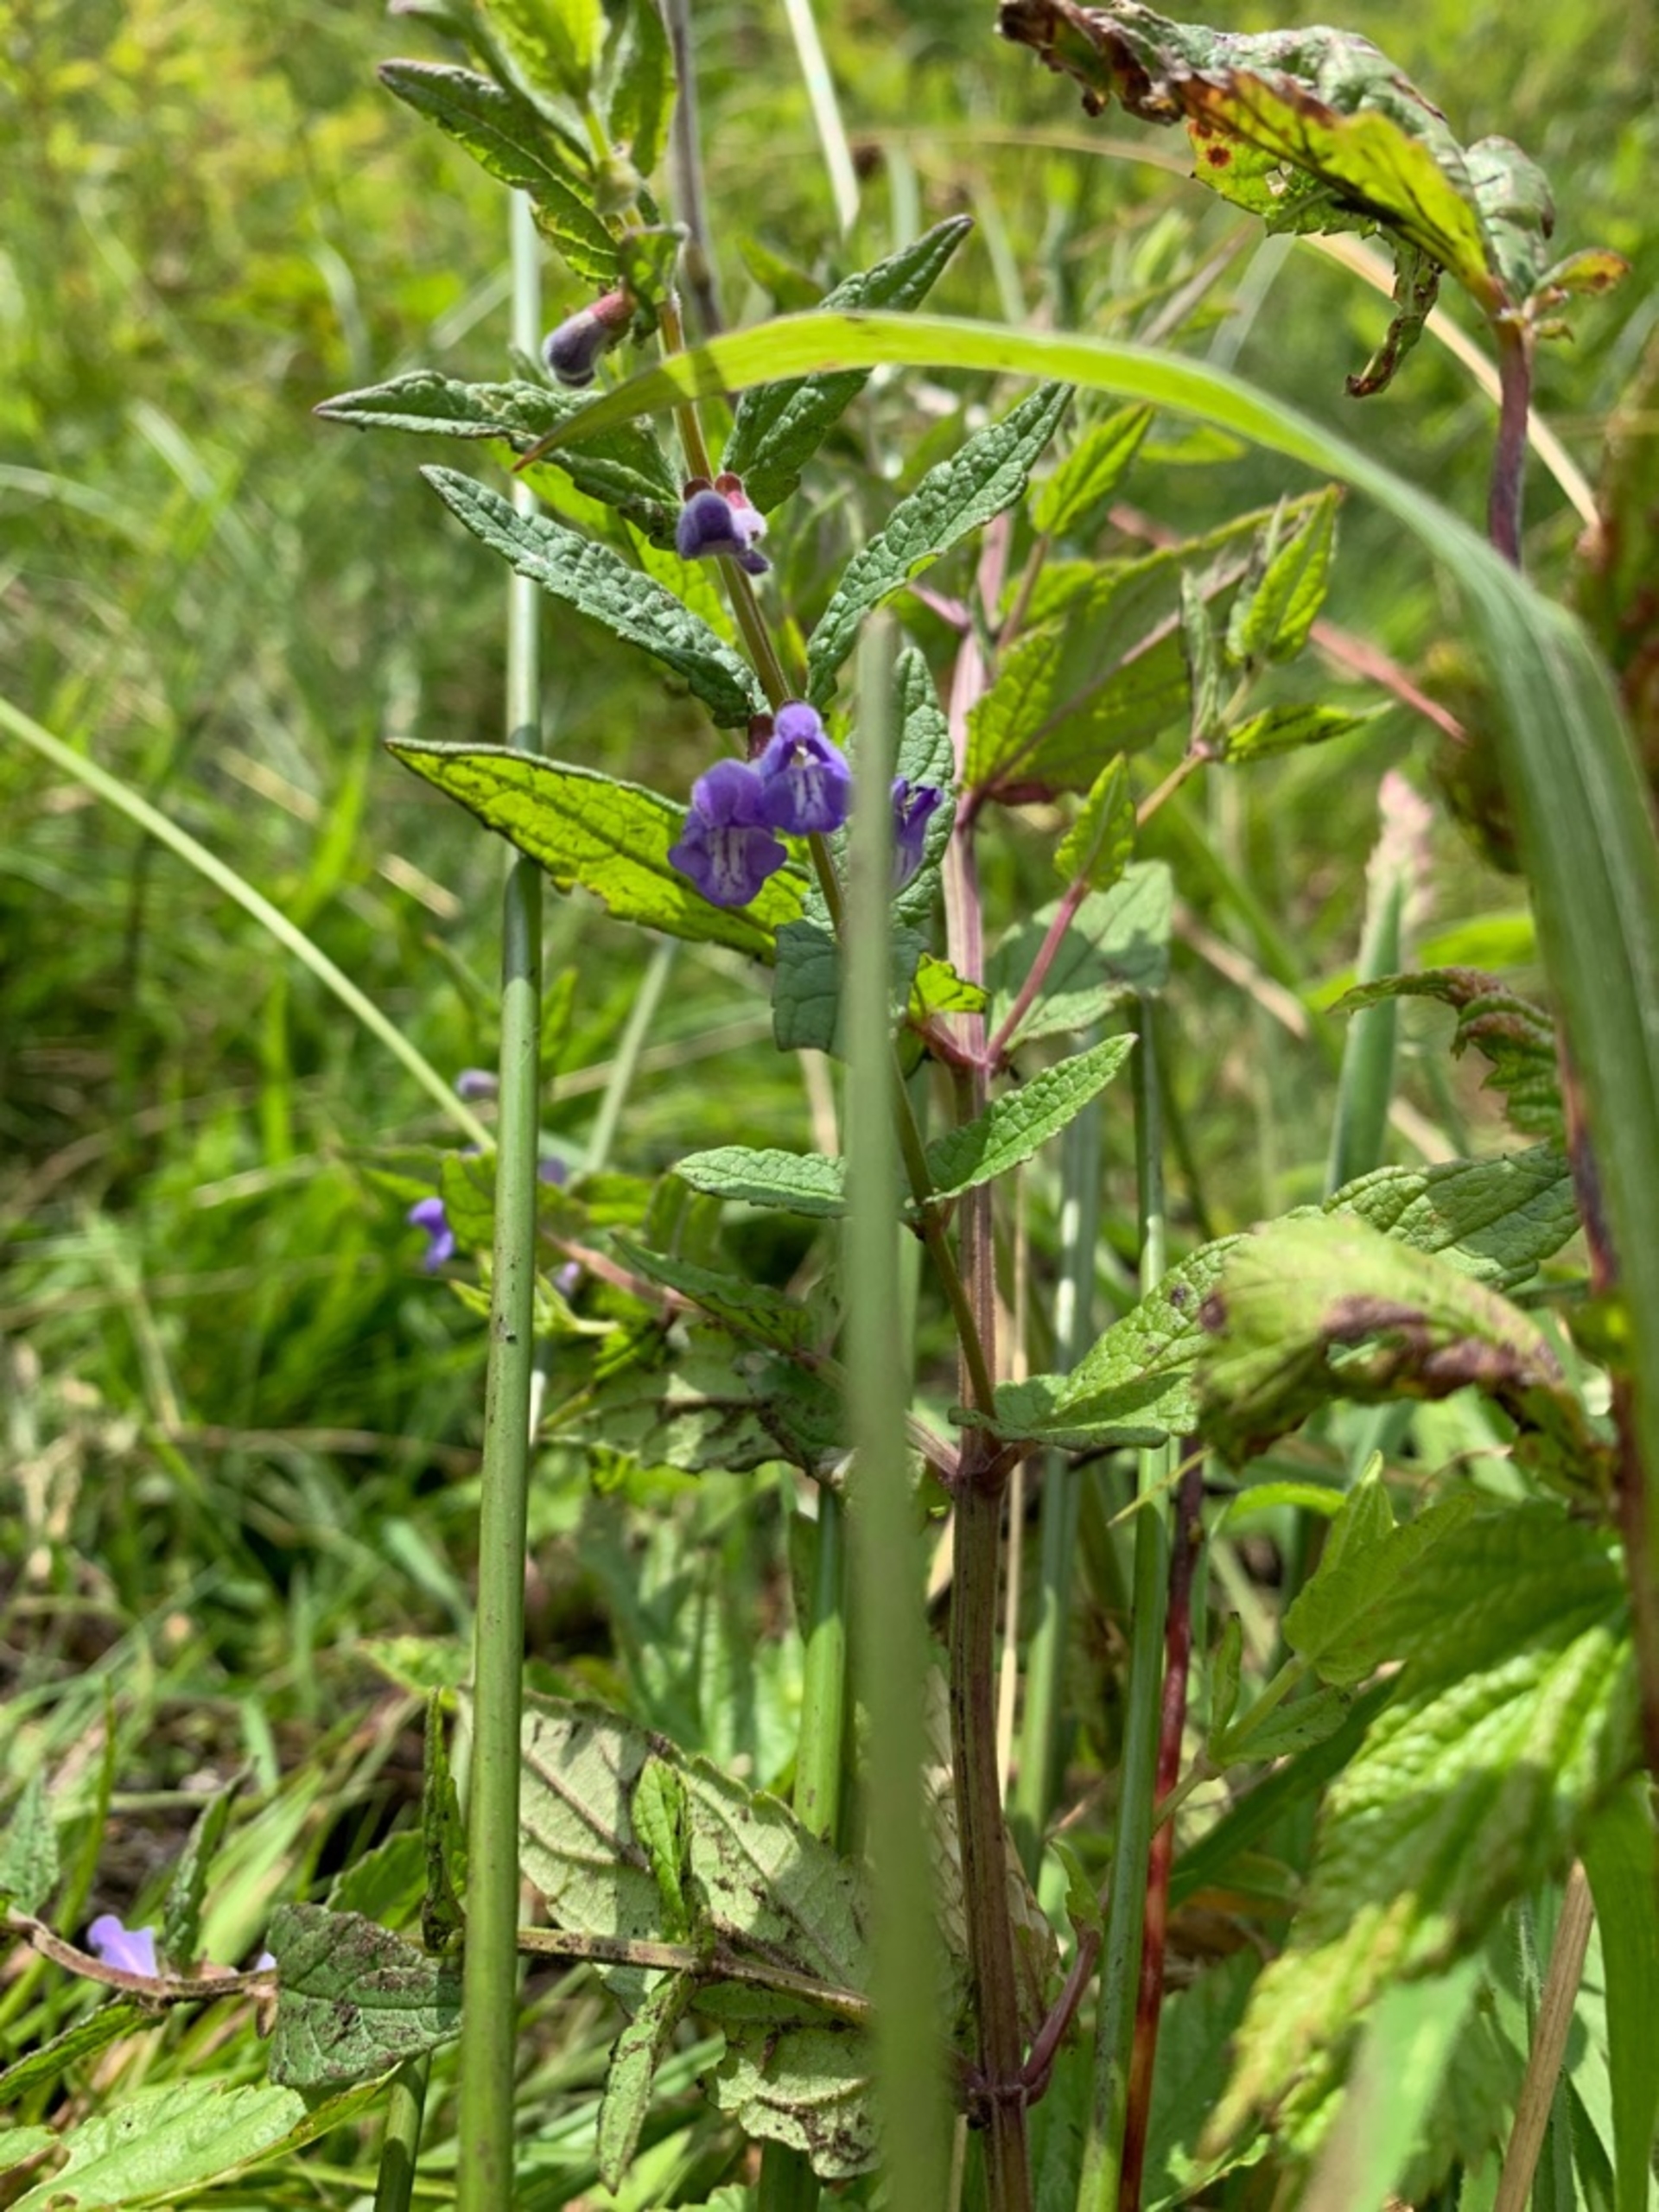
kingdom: Plantae
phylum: Tracheophyta
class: Magnoliopsida
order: Lamiales
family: Lamiaceae
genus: Scutellaria
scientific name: Scutellaria galericulata
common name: Almindelig skjolddrager
